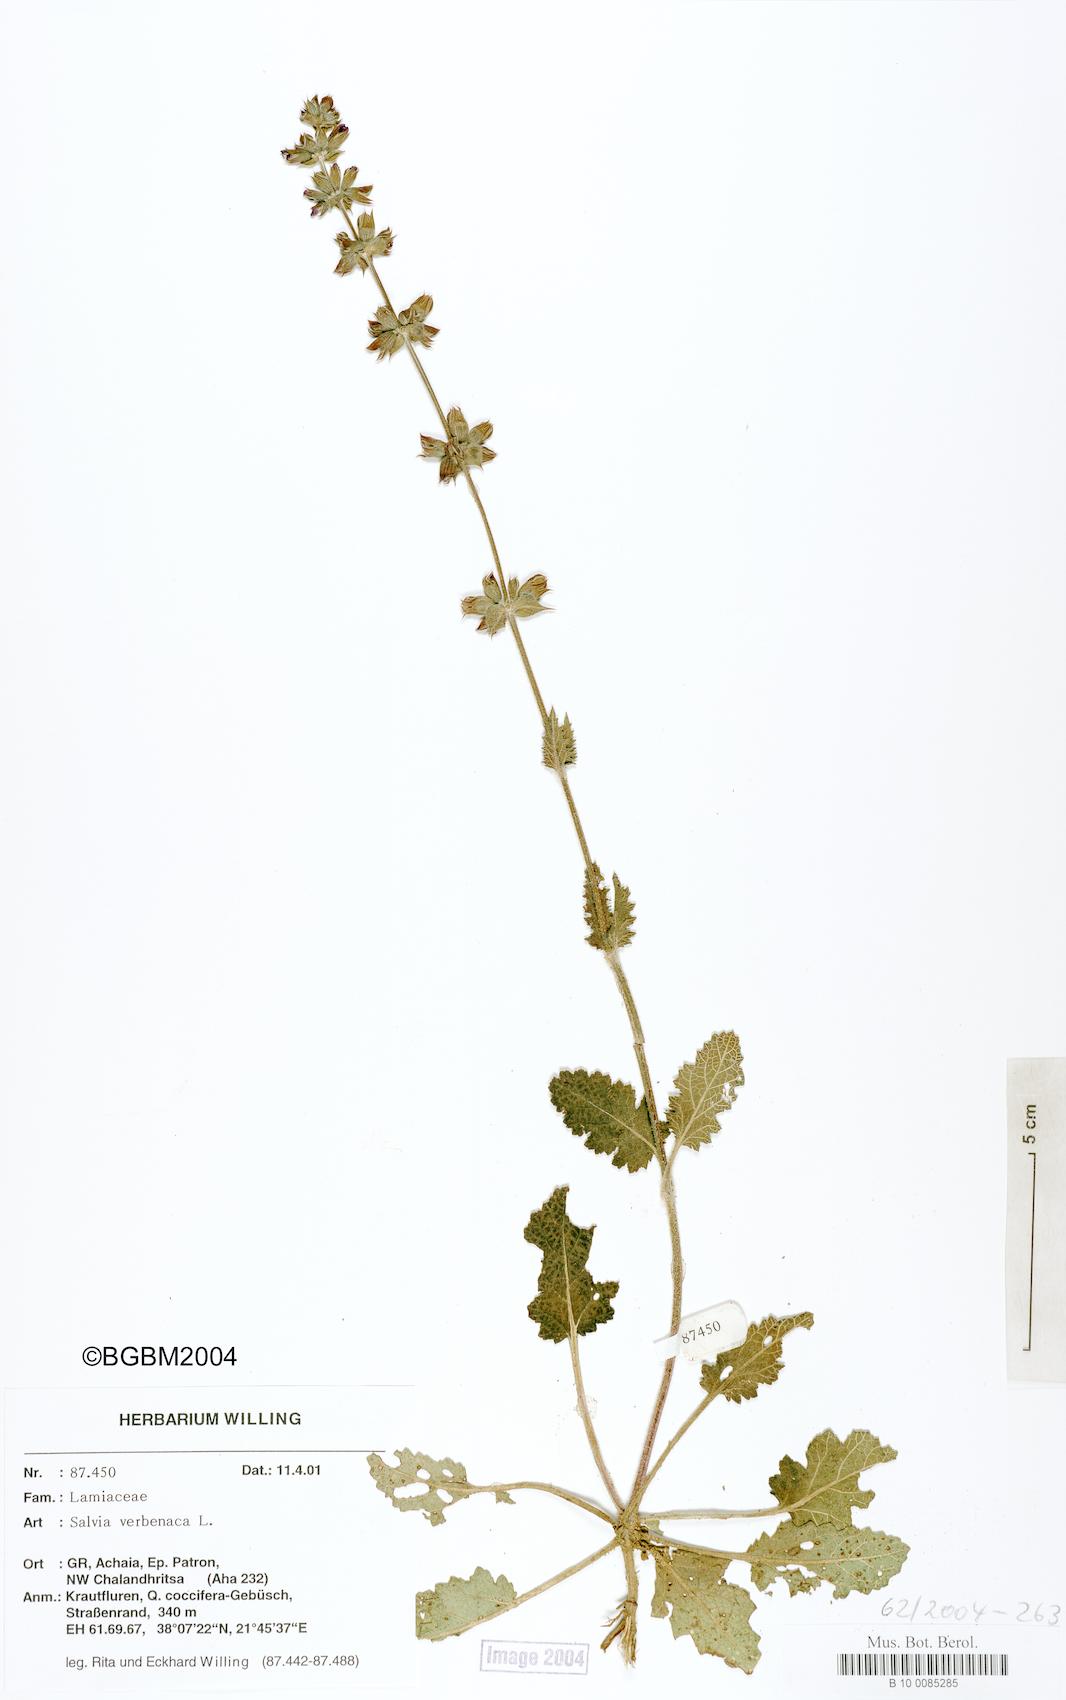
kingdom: Plantae
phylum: Tracheophyta
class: Magnoliopsida
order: Lamiales
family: Lamiaceae
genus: Salvia
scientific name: Salvia verbenaca
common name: Wild clary
